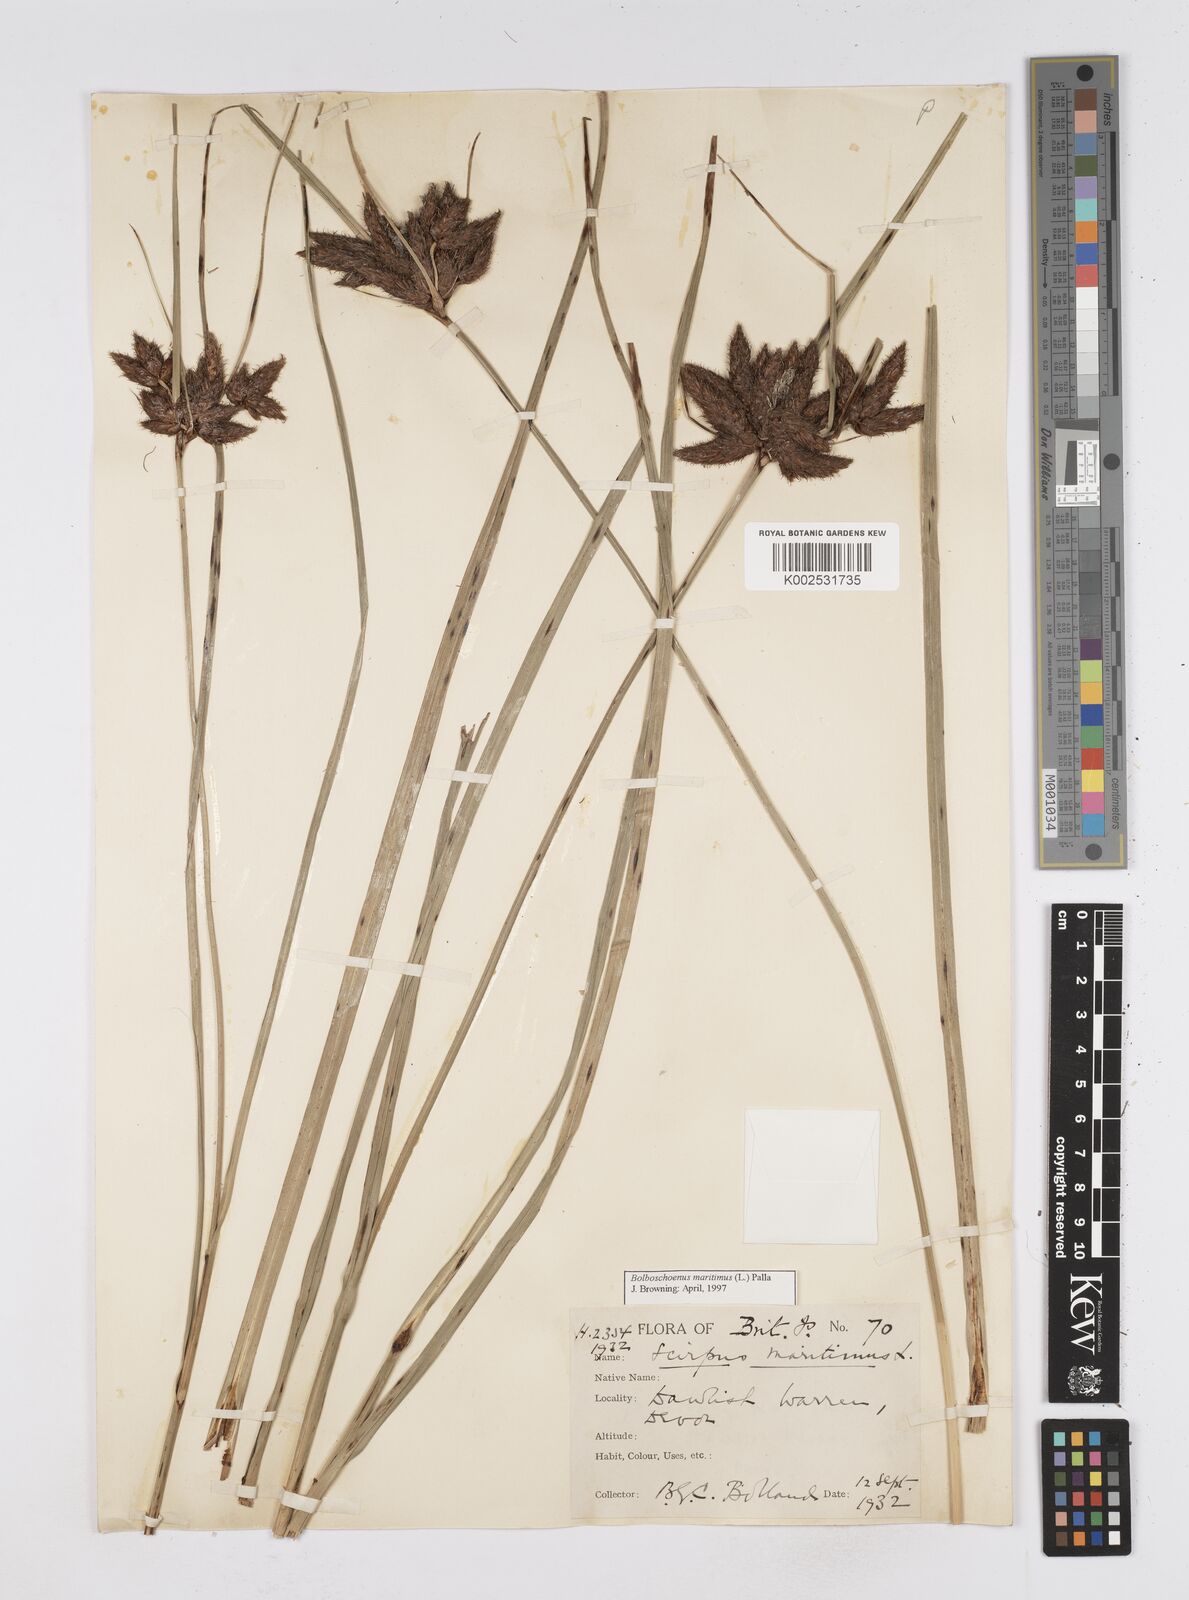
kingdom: Plantae
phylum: Tracheophyta
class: Liliopsida
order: Poales
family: Cyperaceae
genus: Bolboschoenus
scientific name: Bolboschoenus maritimus
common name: Sea club-rush
